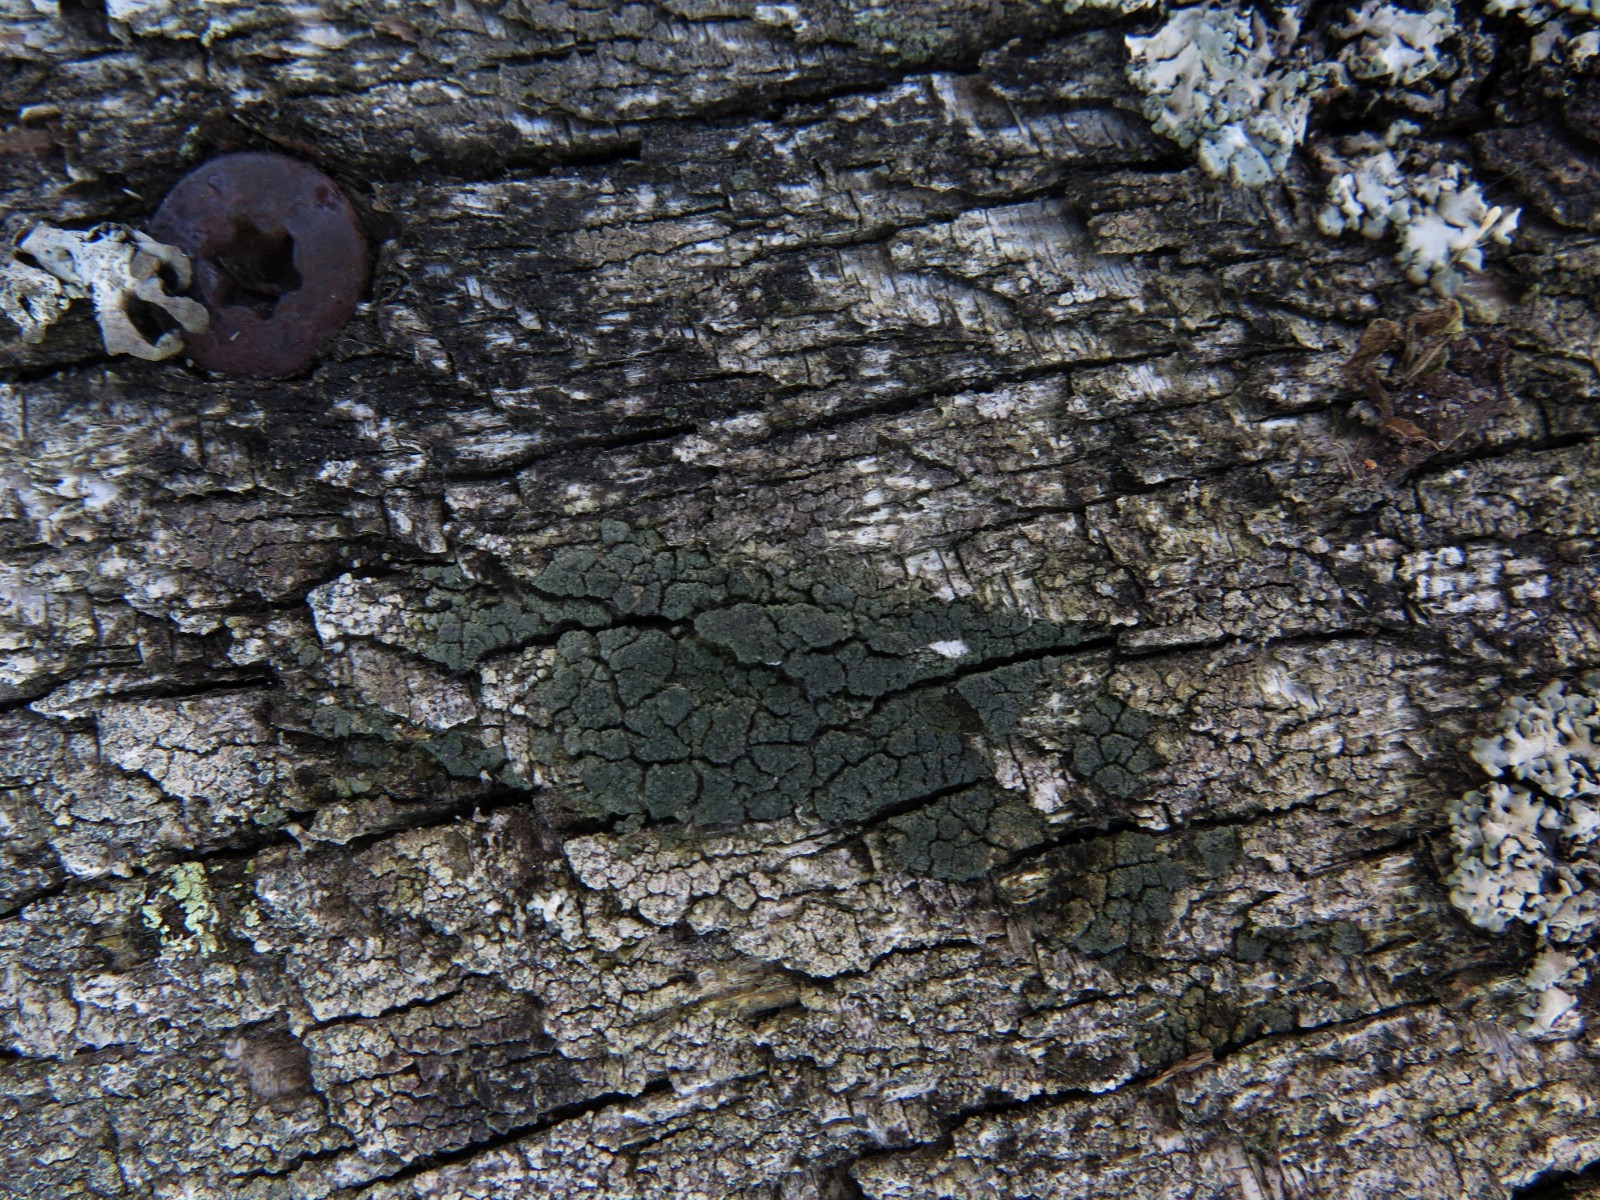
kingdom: Fungi
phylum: Ascomycota
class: Lecanoromycetes
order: Baeomycetales
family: Trapeliaceae
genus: Trapeliopsis
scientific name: Trapeliopsis flexuosa
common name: spanskgrøn skivelav
